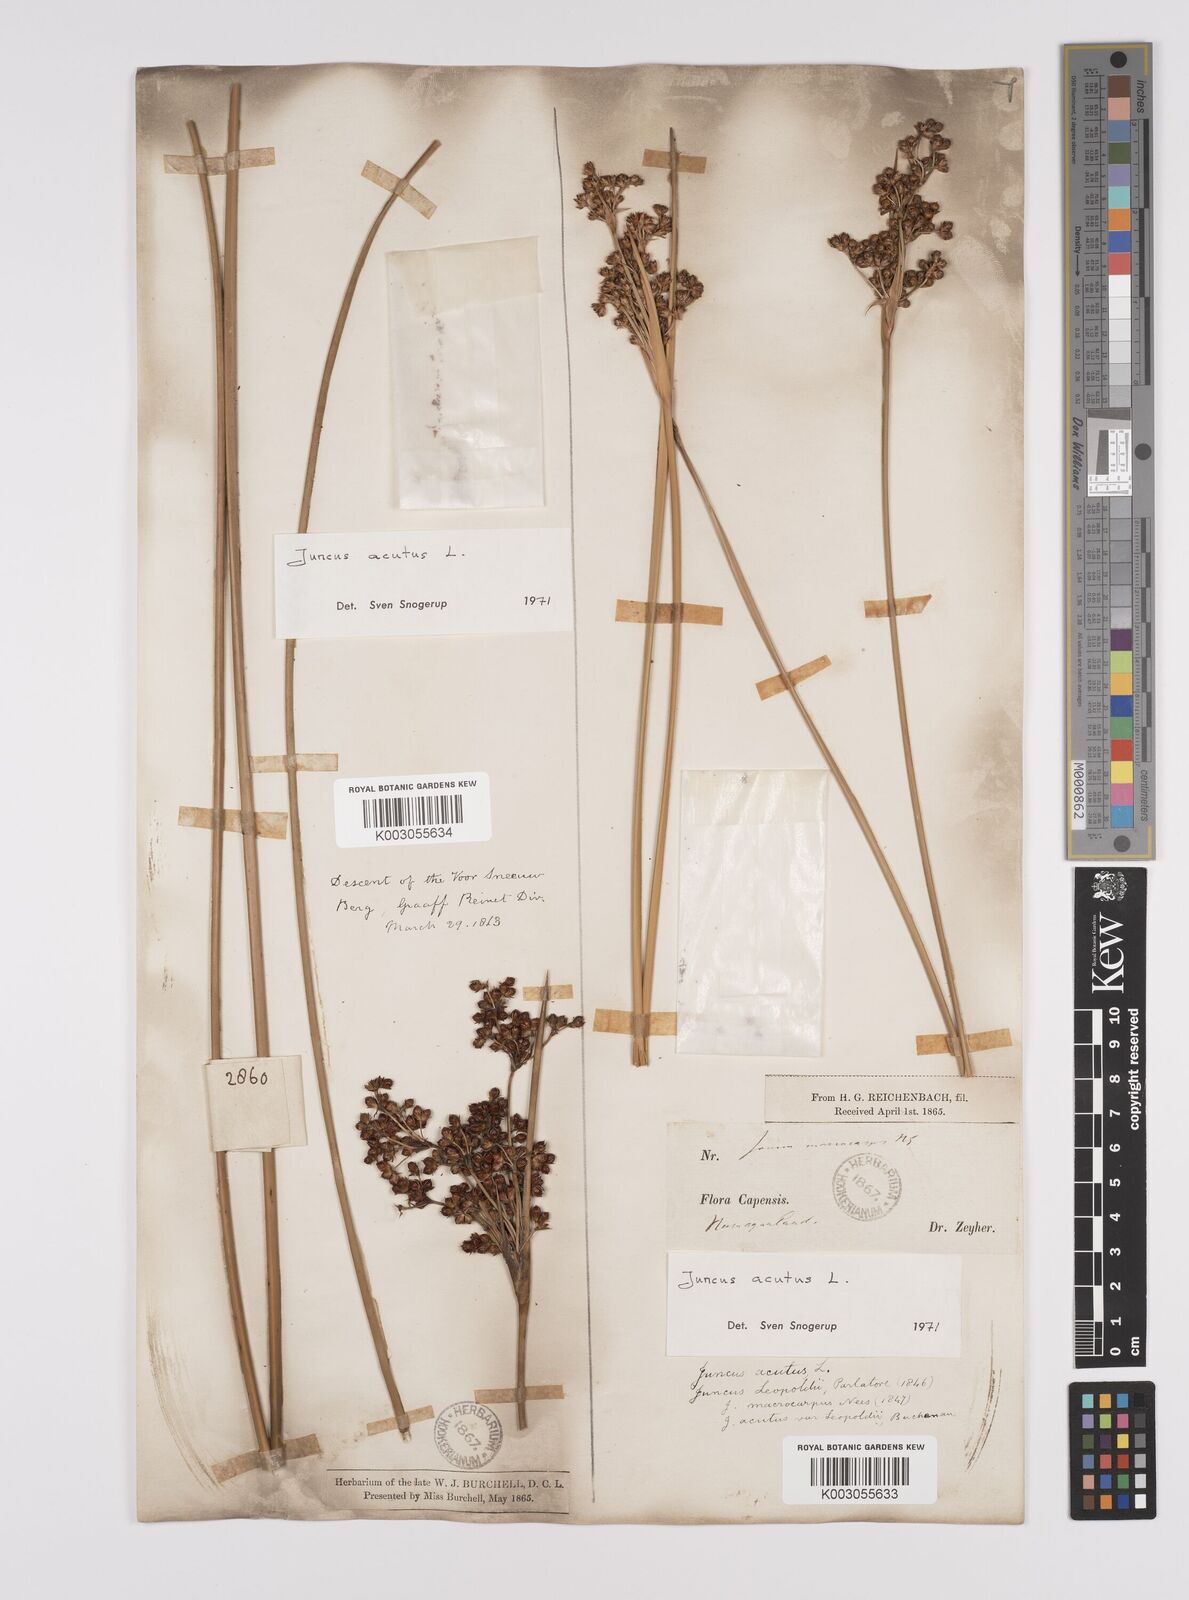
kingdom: Plantae
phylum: Tracheophyta
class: Liliopsida
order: Poales
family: Juncaceae
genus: Juncus
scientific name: Juncus acutus
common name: Sharp rush
